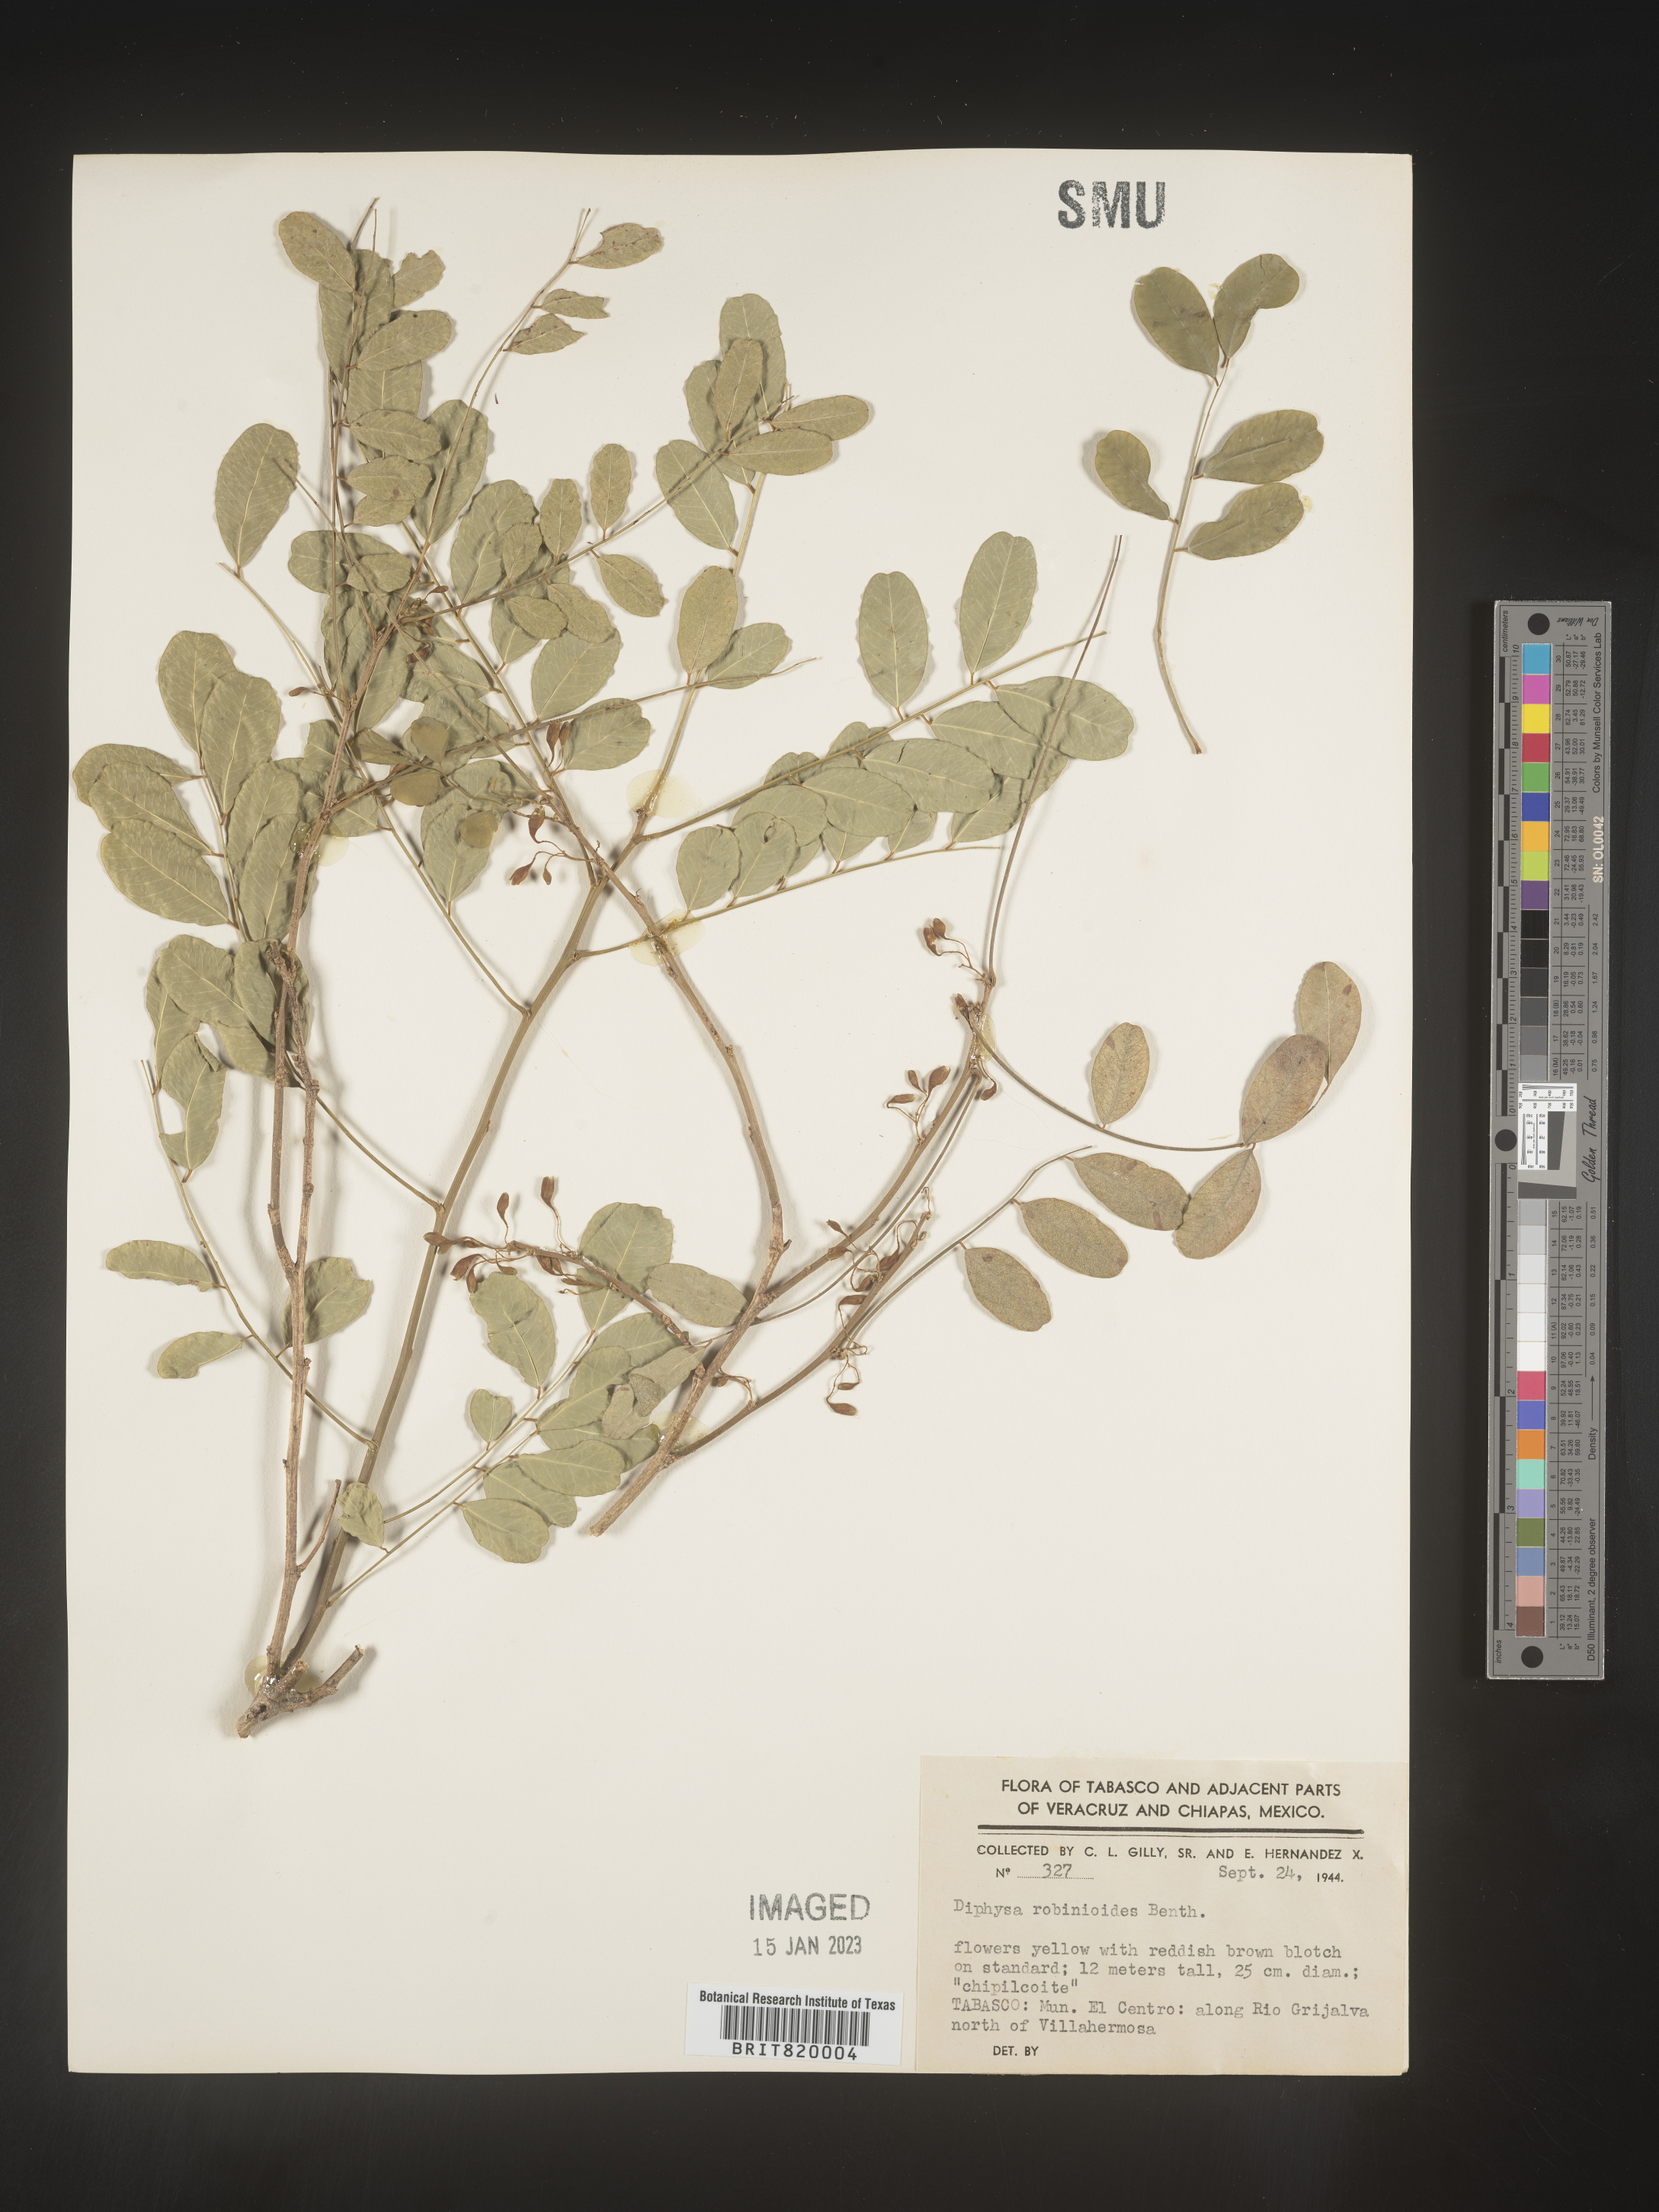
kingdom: Plantae
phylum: Tracheophyta
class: Magnoliopsida
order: Fabales
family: Fabaceae
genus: Diphysa
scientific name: Diphysa
